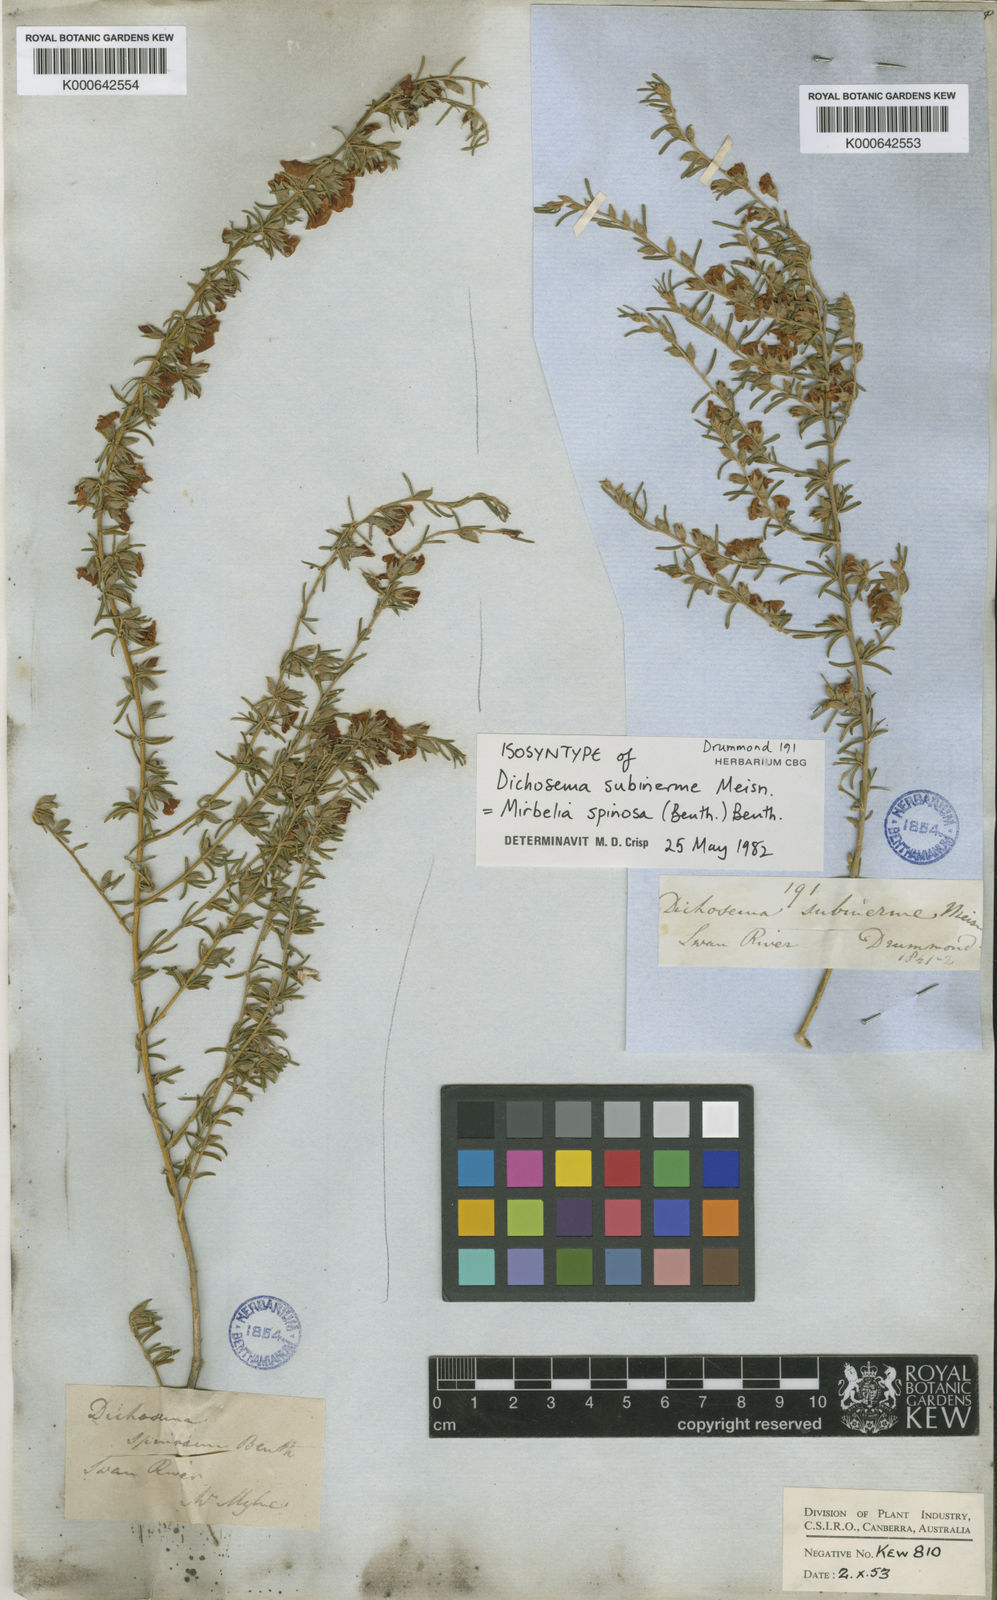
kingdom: Plantae
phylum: Tracheophyta
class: Magnoliopsida
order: Fabales
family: Fabaceae
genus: Mirbelia
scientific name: Mirbelia spinosa
